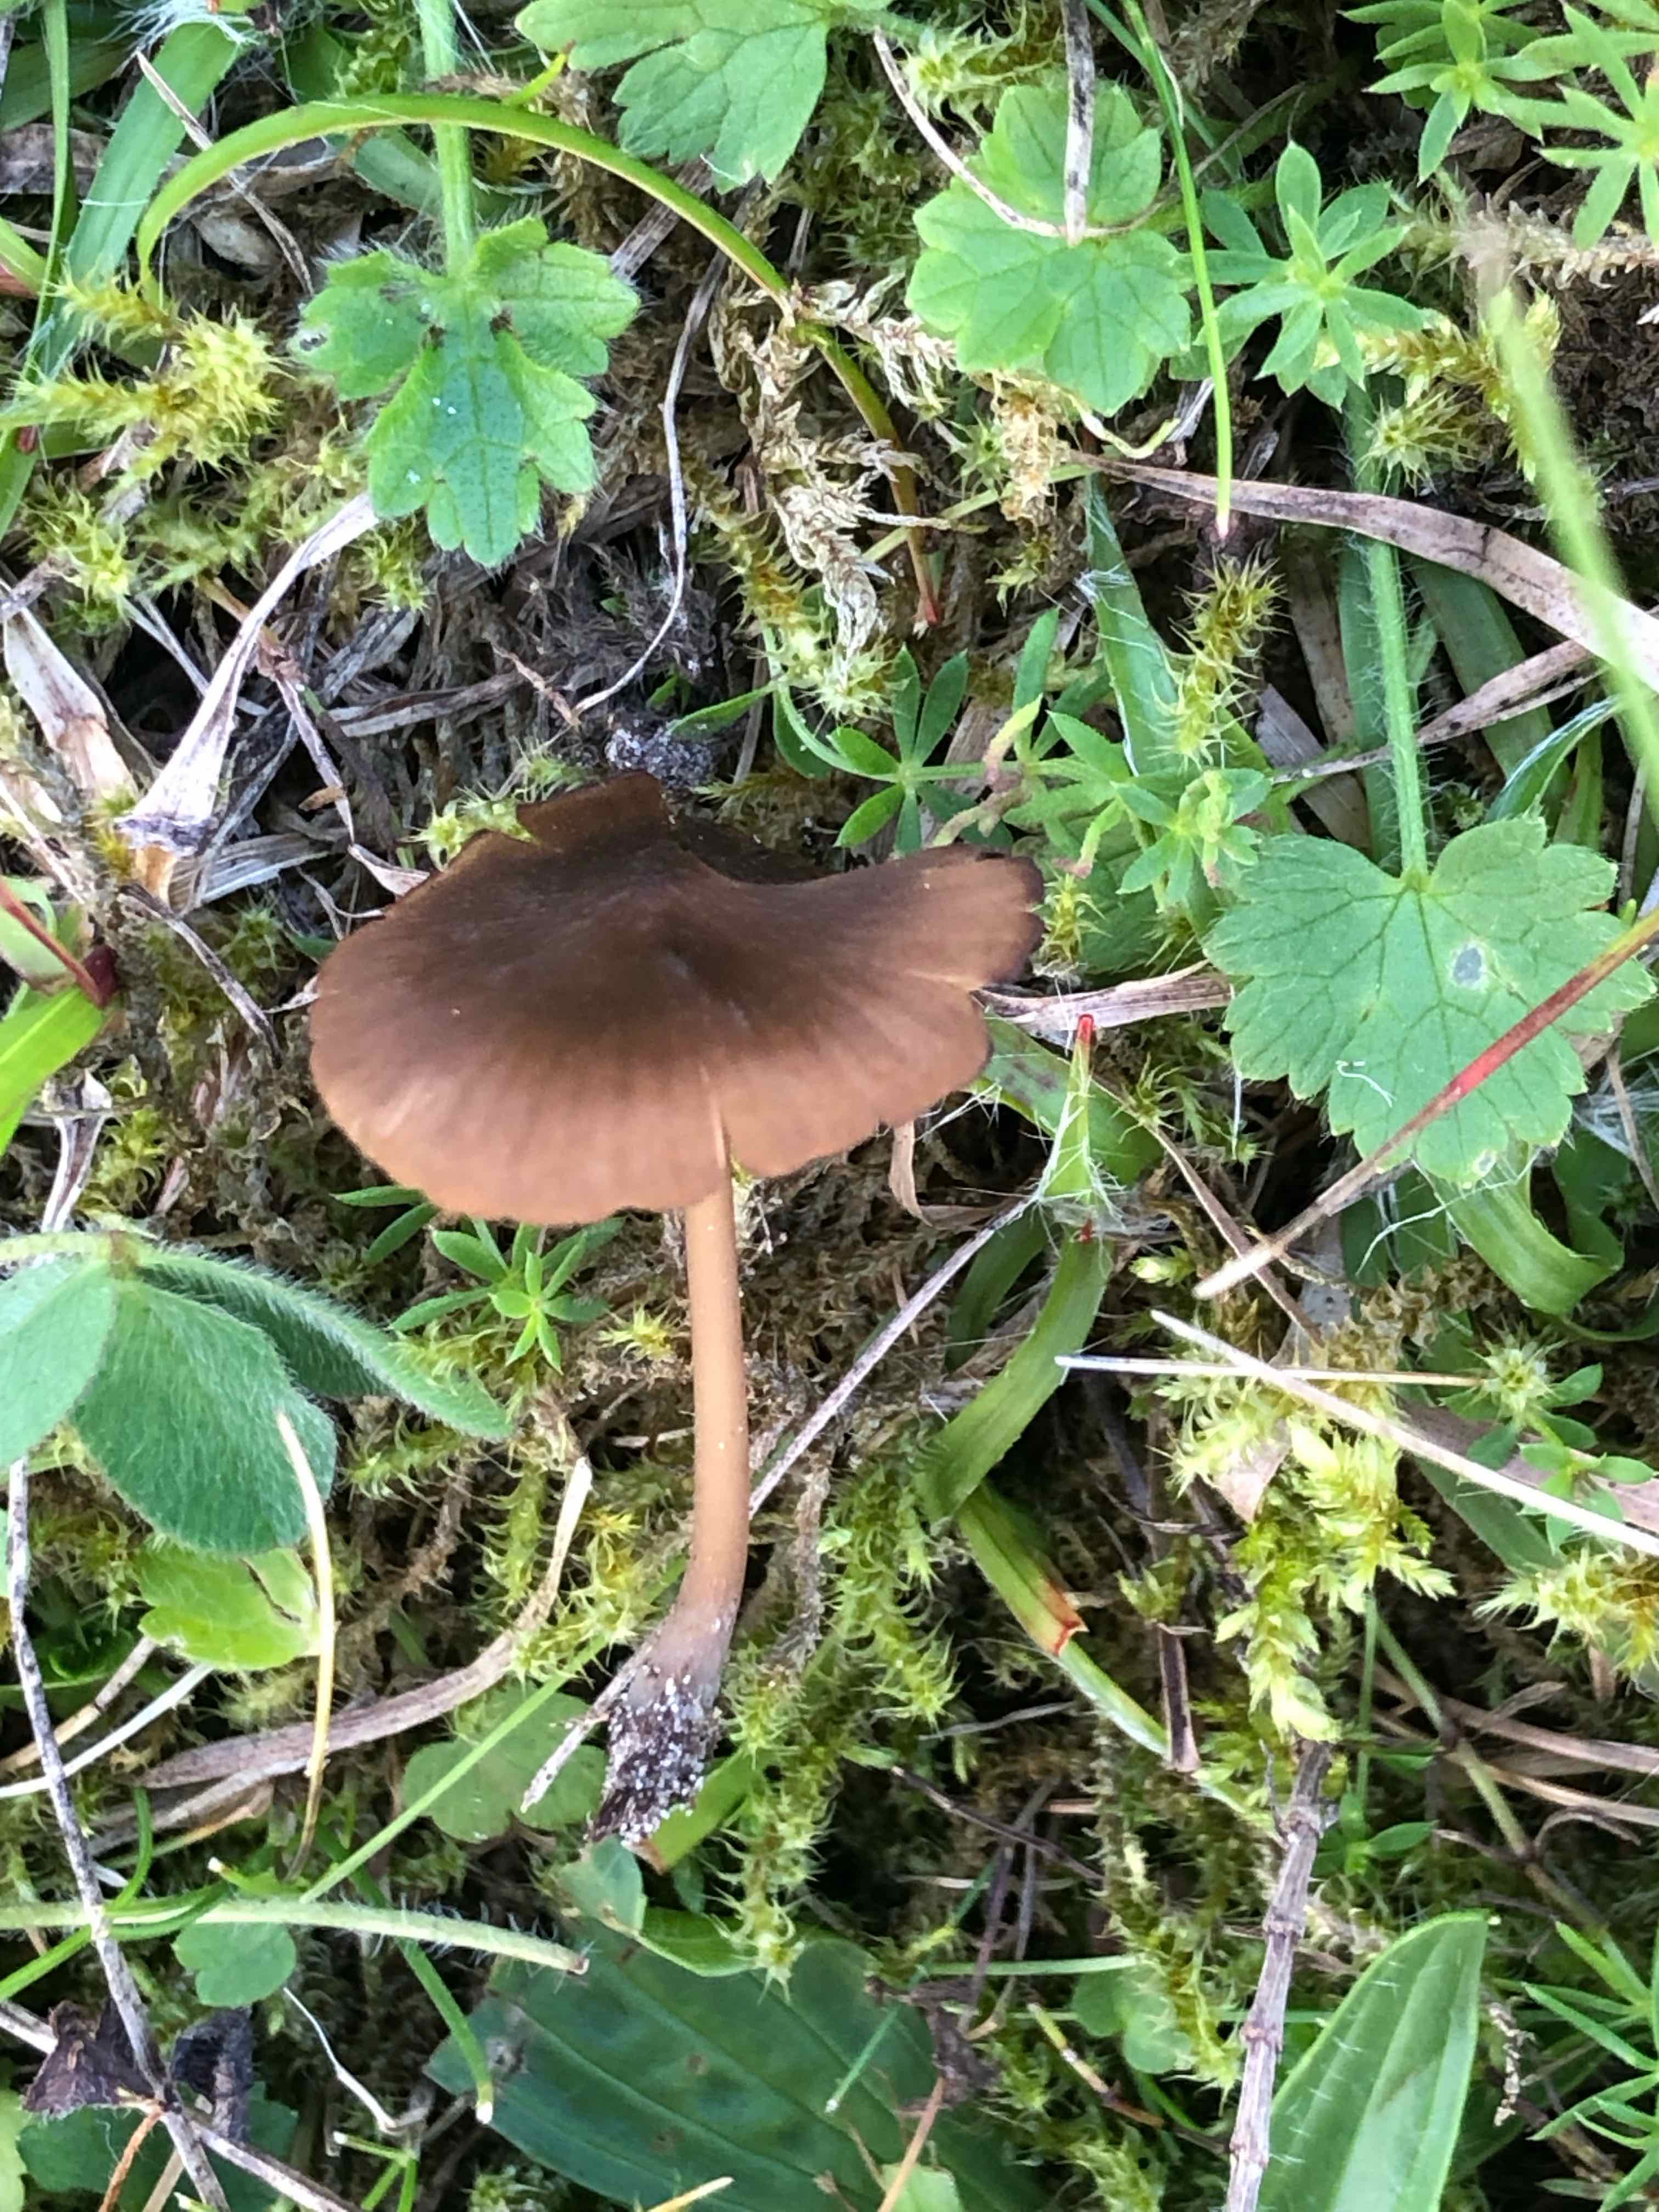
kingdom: Fungi
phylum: Basidiomycota
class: Agaricomycetes
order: Agaricales
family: Entolomataceae
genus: Entoloma
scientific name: Entoloma
